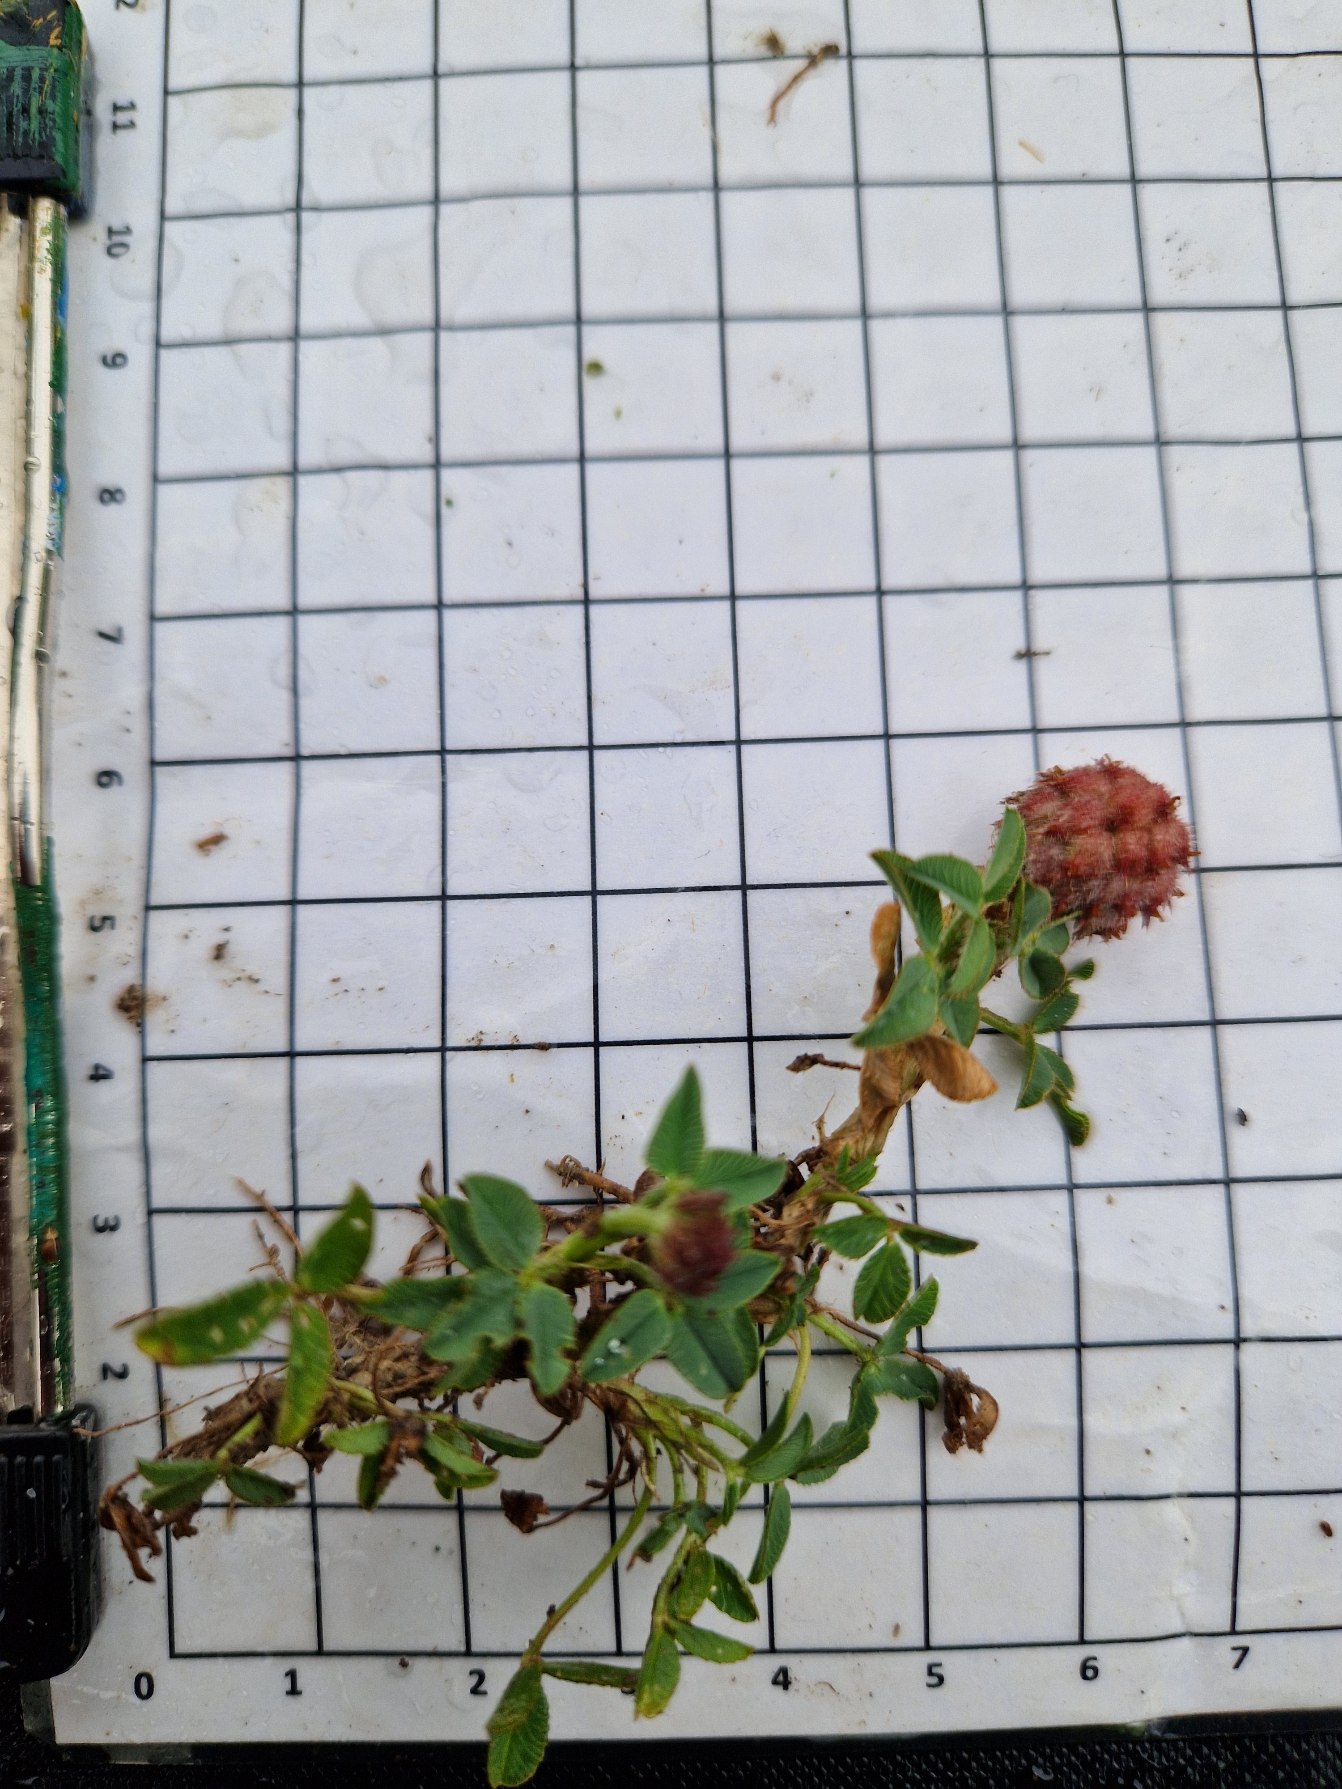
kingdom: Plantae
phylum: Tracheophyta
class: Magnoliopsida
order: Fabales
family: Fabaceae
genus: Trifolium
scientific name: Trifolium fragiferum
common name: Jordbær-kløver
